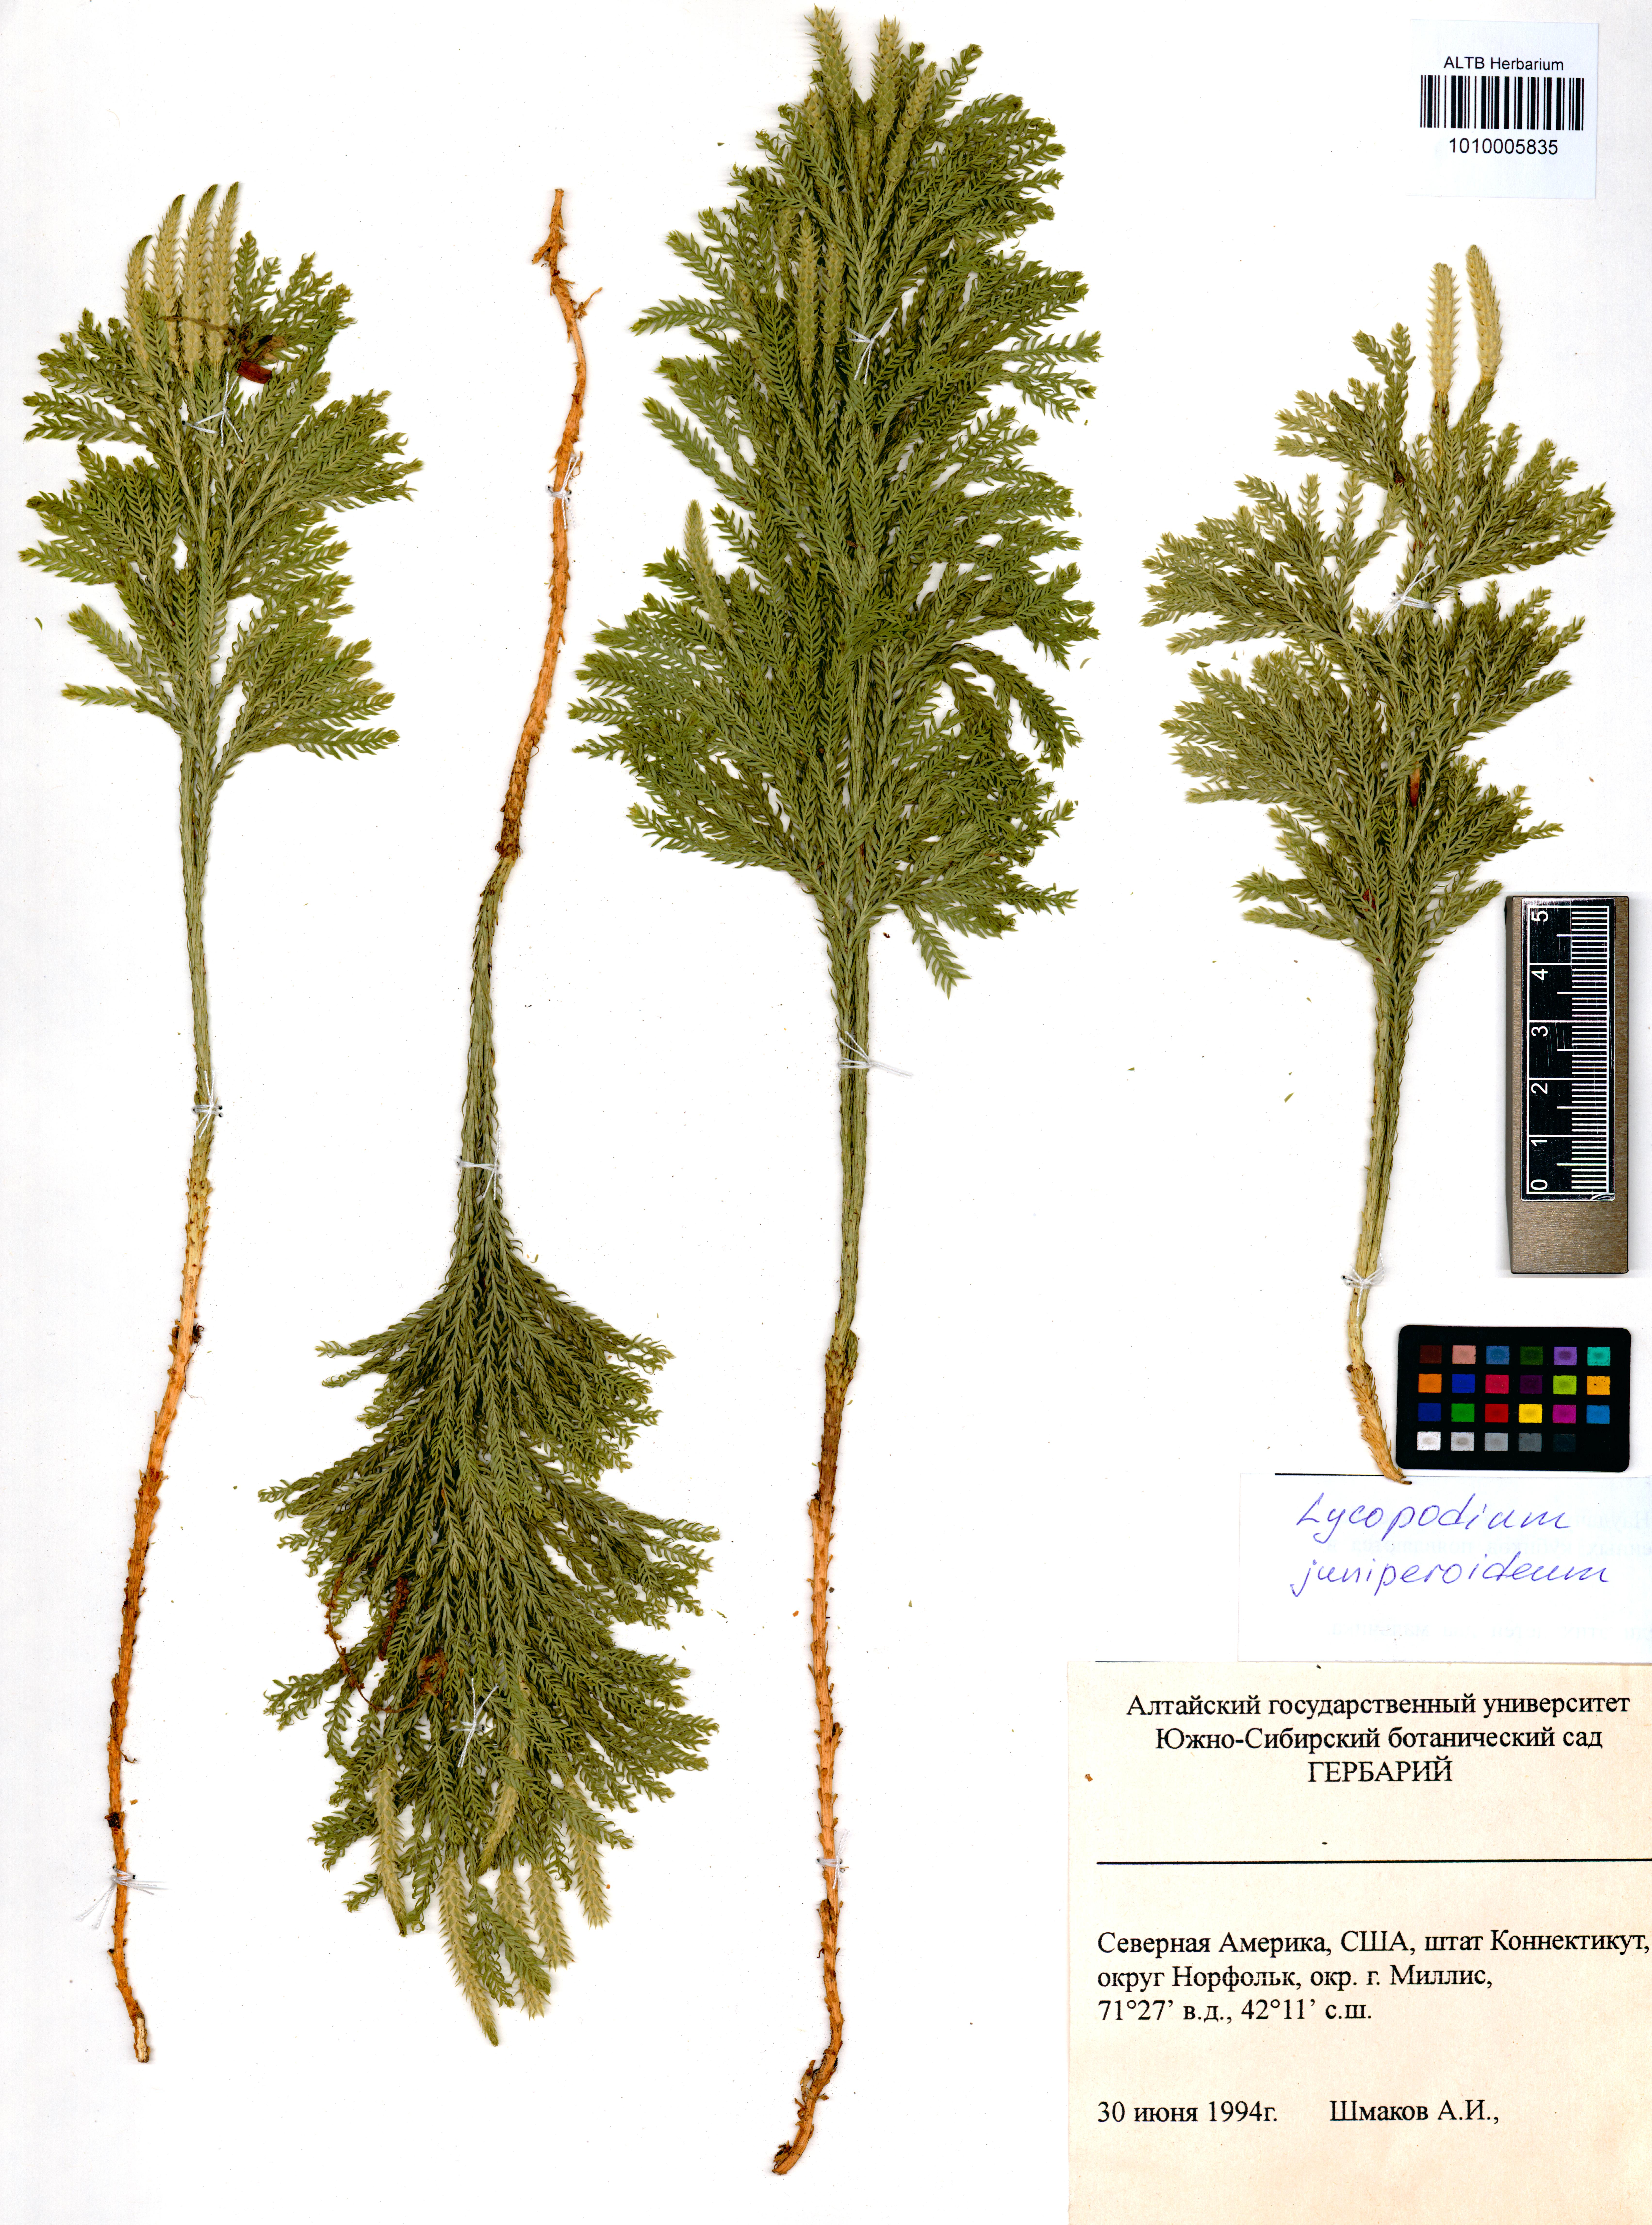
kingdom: Plantae
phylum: Tracheophyta
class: Lycopodiopsida
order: Lycopodiales
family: Lycopodiaceae
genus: Dendrolycopodium
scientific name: Dendrolycopodium juniperoideum
